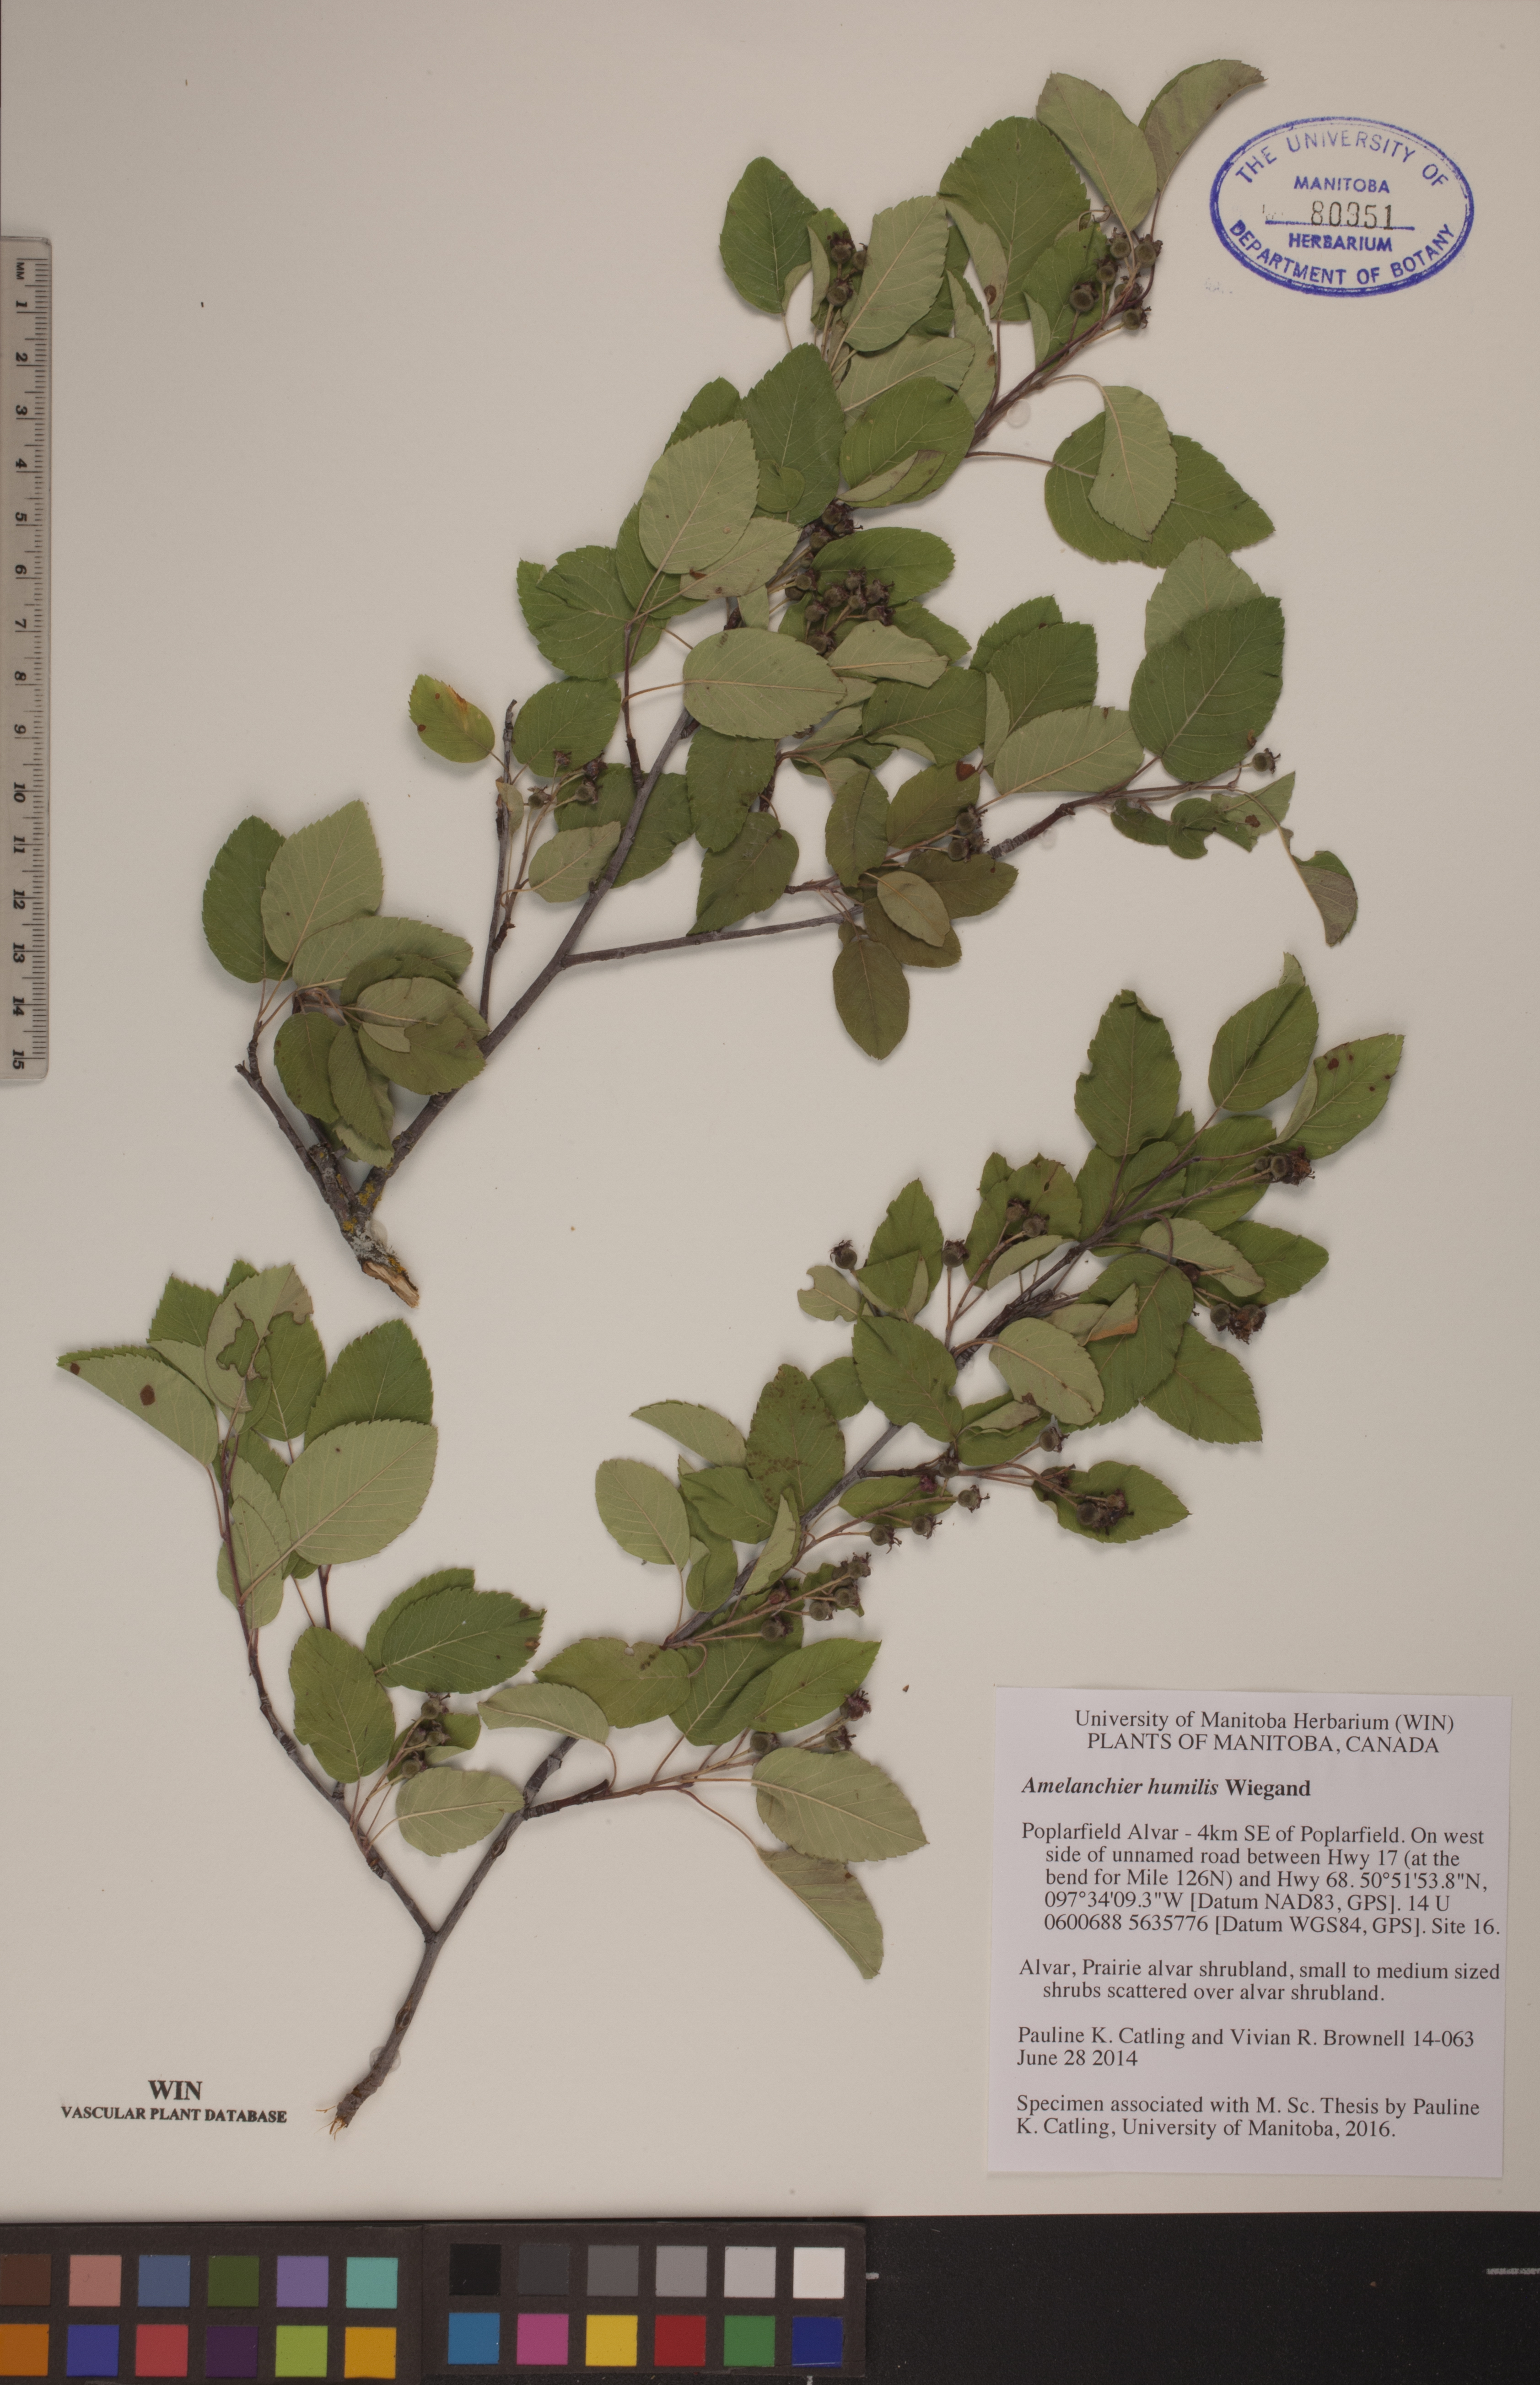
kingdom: Plantae
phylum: Tracheophyta
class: Magnoliopsida
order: Rosales
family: Rosaceae
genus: Amelanchier
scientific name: Amelanchier humilis
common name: Low juneberry
